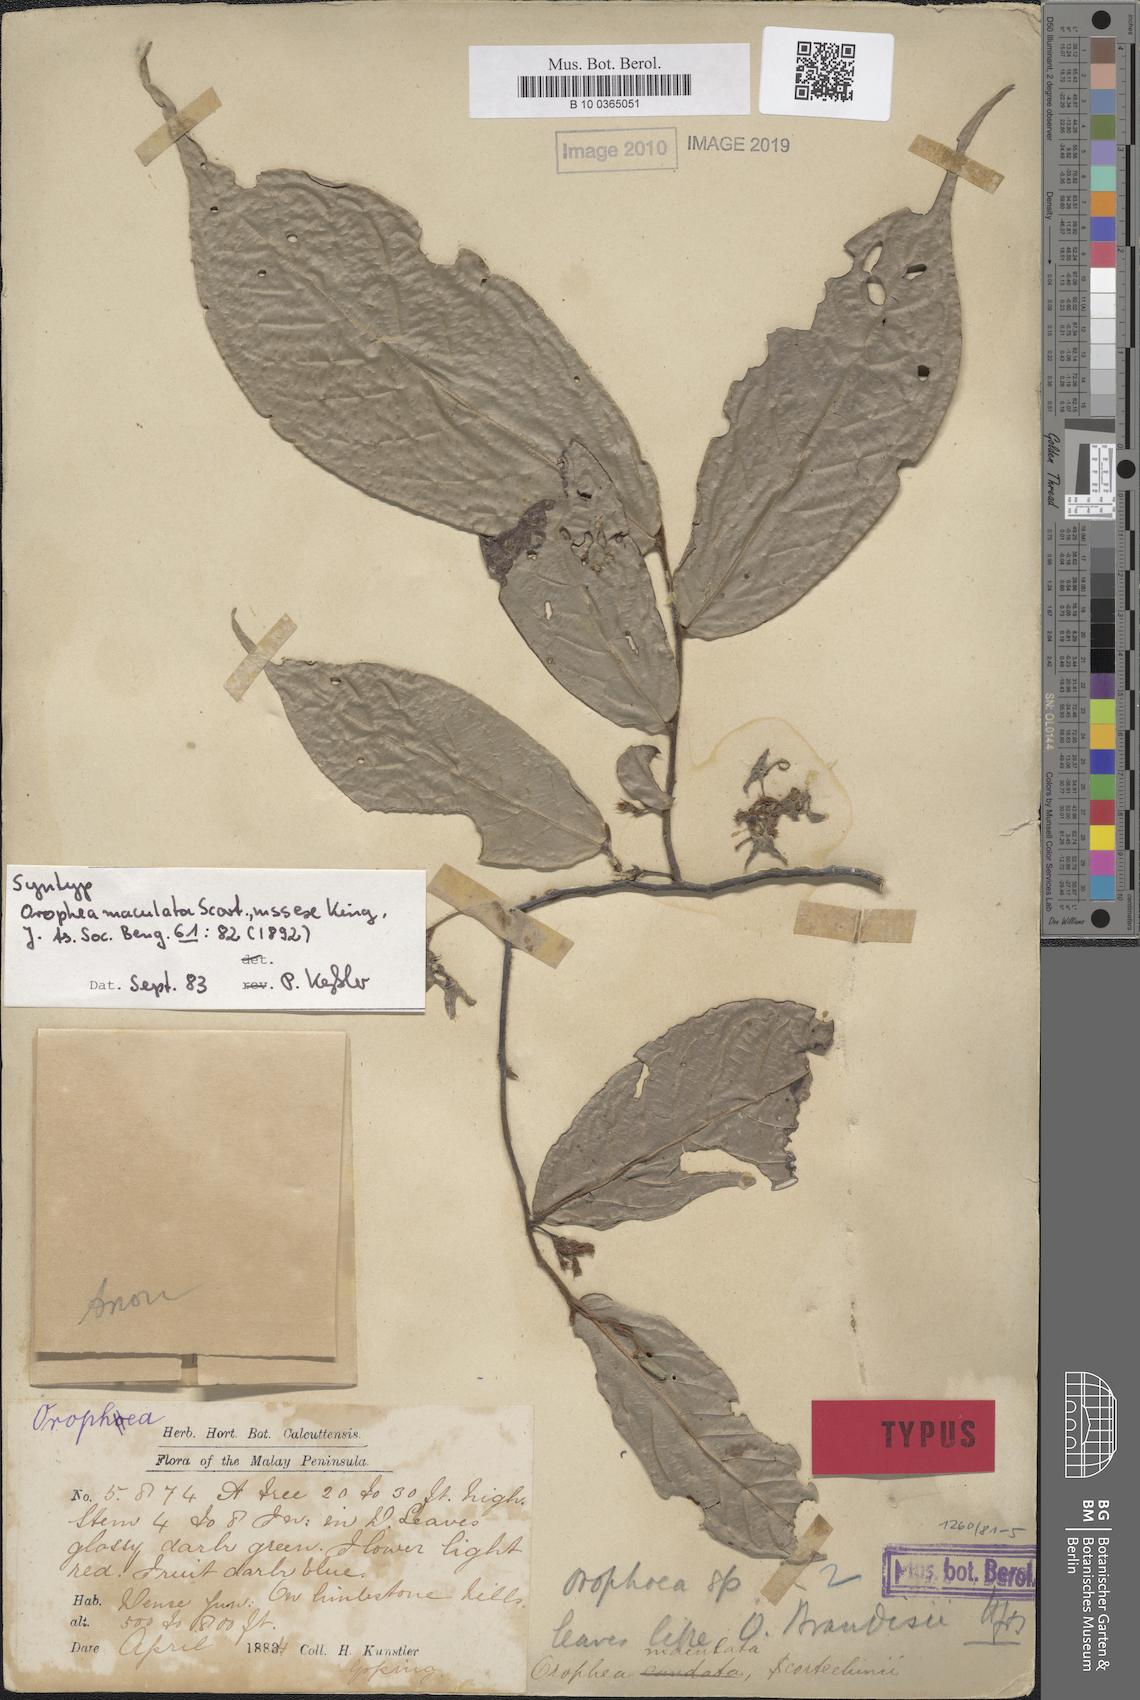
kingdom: Plantae
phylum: Tracheophyta
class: Magnoliopsida
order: Magnoliales
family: Annonaceae
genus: Orophea
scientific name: Orophea maculata
